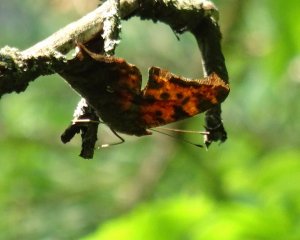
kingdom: Animalia
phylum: Arthropoda
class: Insecta
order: Lepidoptera
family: Nymphalidae
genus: Polygonia
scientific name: Polygonia interrogationis
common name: Question Mark
